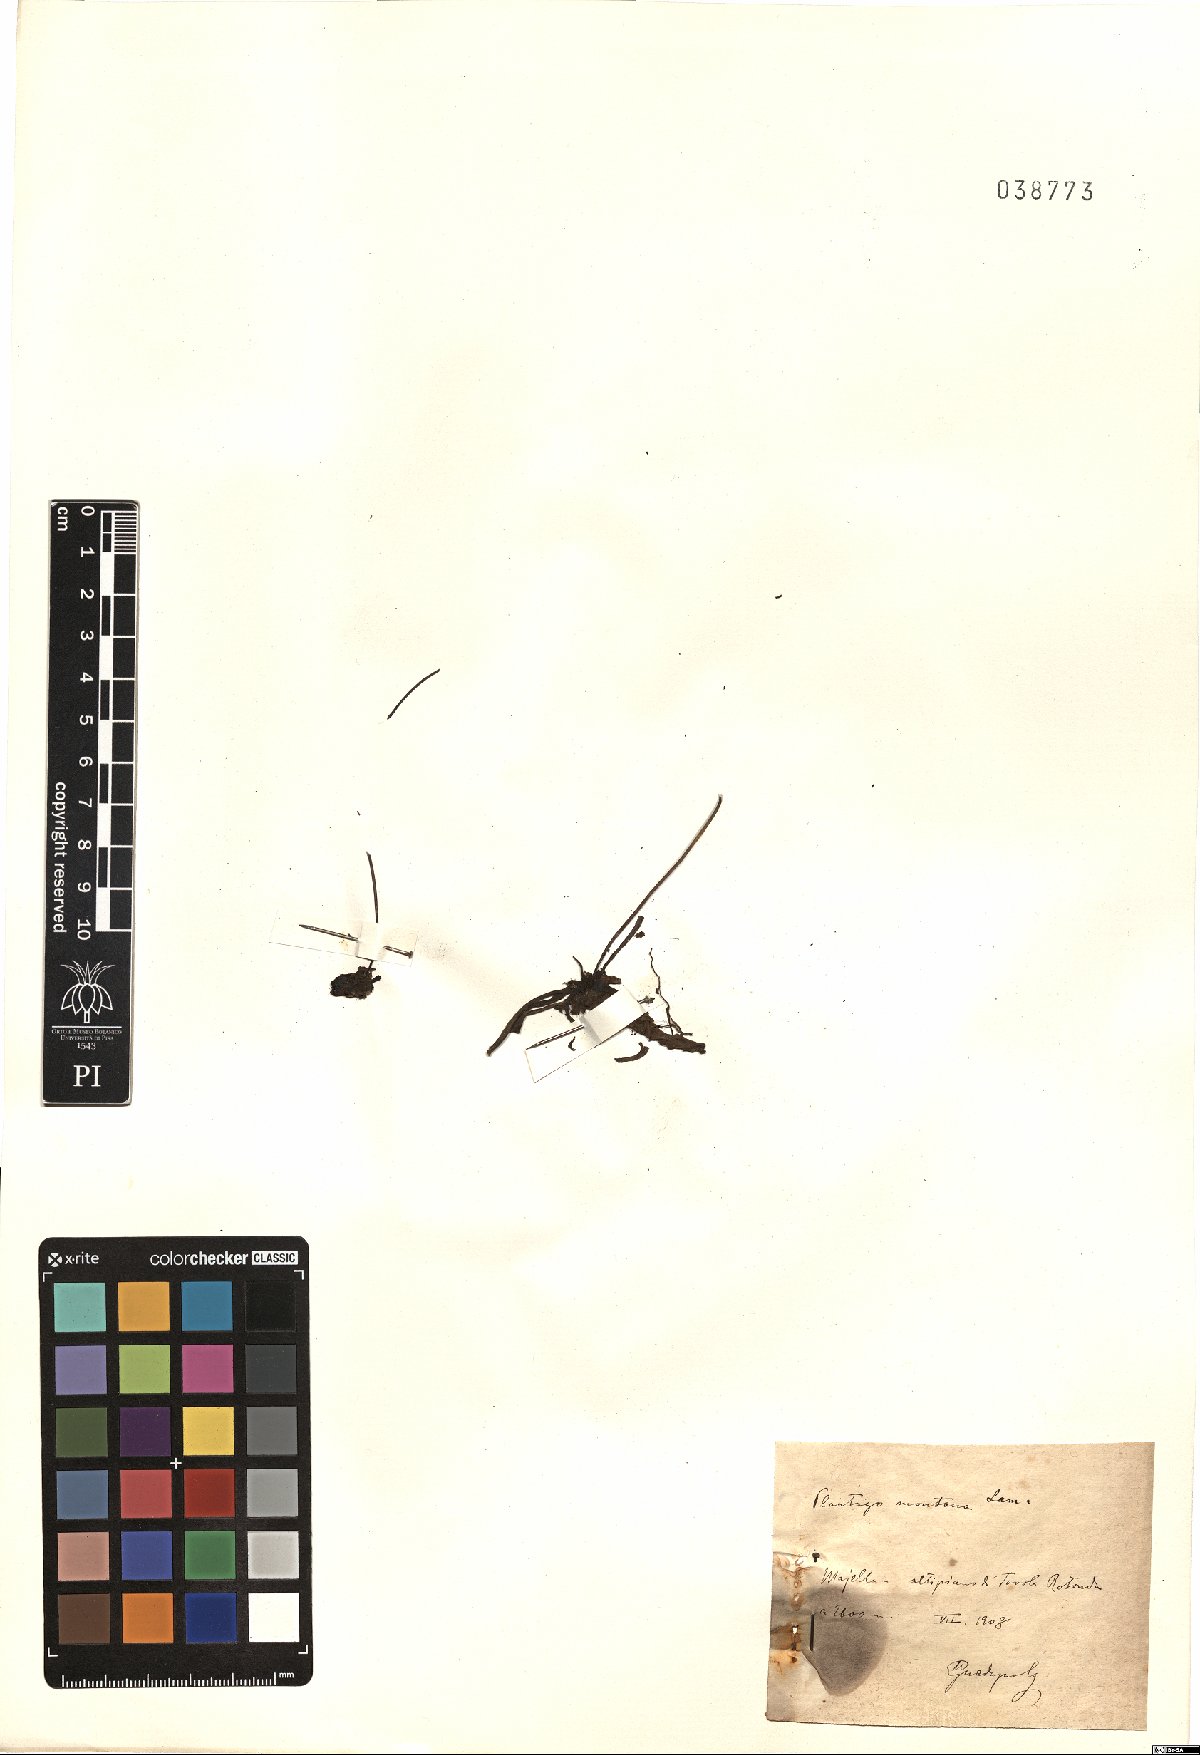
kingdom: Plantae
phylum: Tracheophyta
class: Magnoliopsida
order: Lamiales
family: Plantaginaceae
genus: Plantago
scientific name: Plantago atrata
